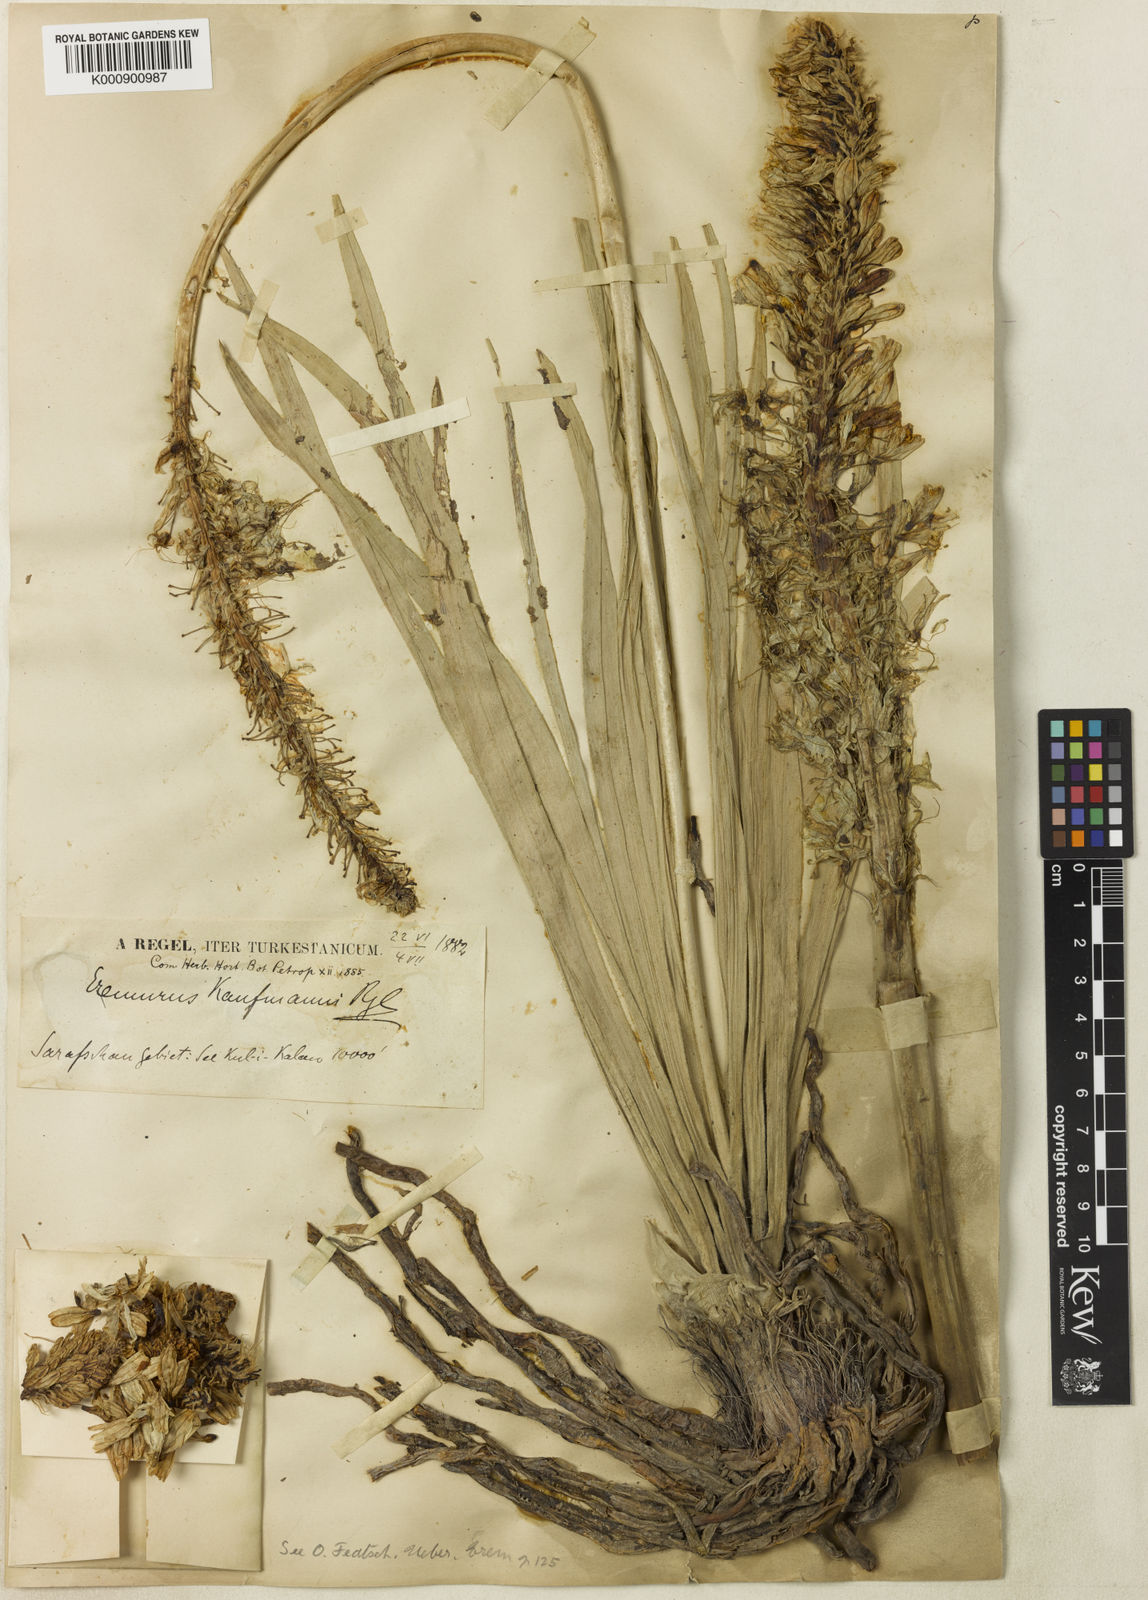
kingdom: Plantae
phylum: Tracheophyta
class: Liliopsida
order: Asparagales
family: Asphodelaceae
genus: Eremurus
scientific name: Eremurus kaufmannii
